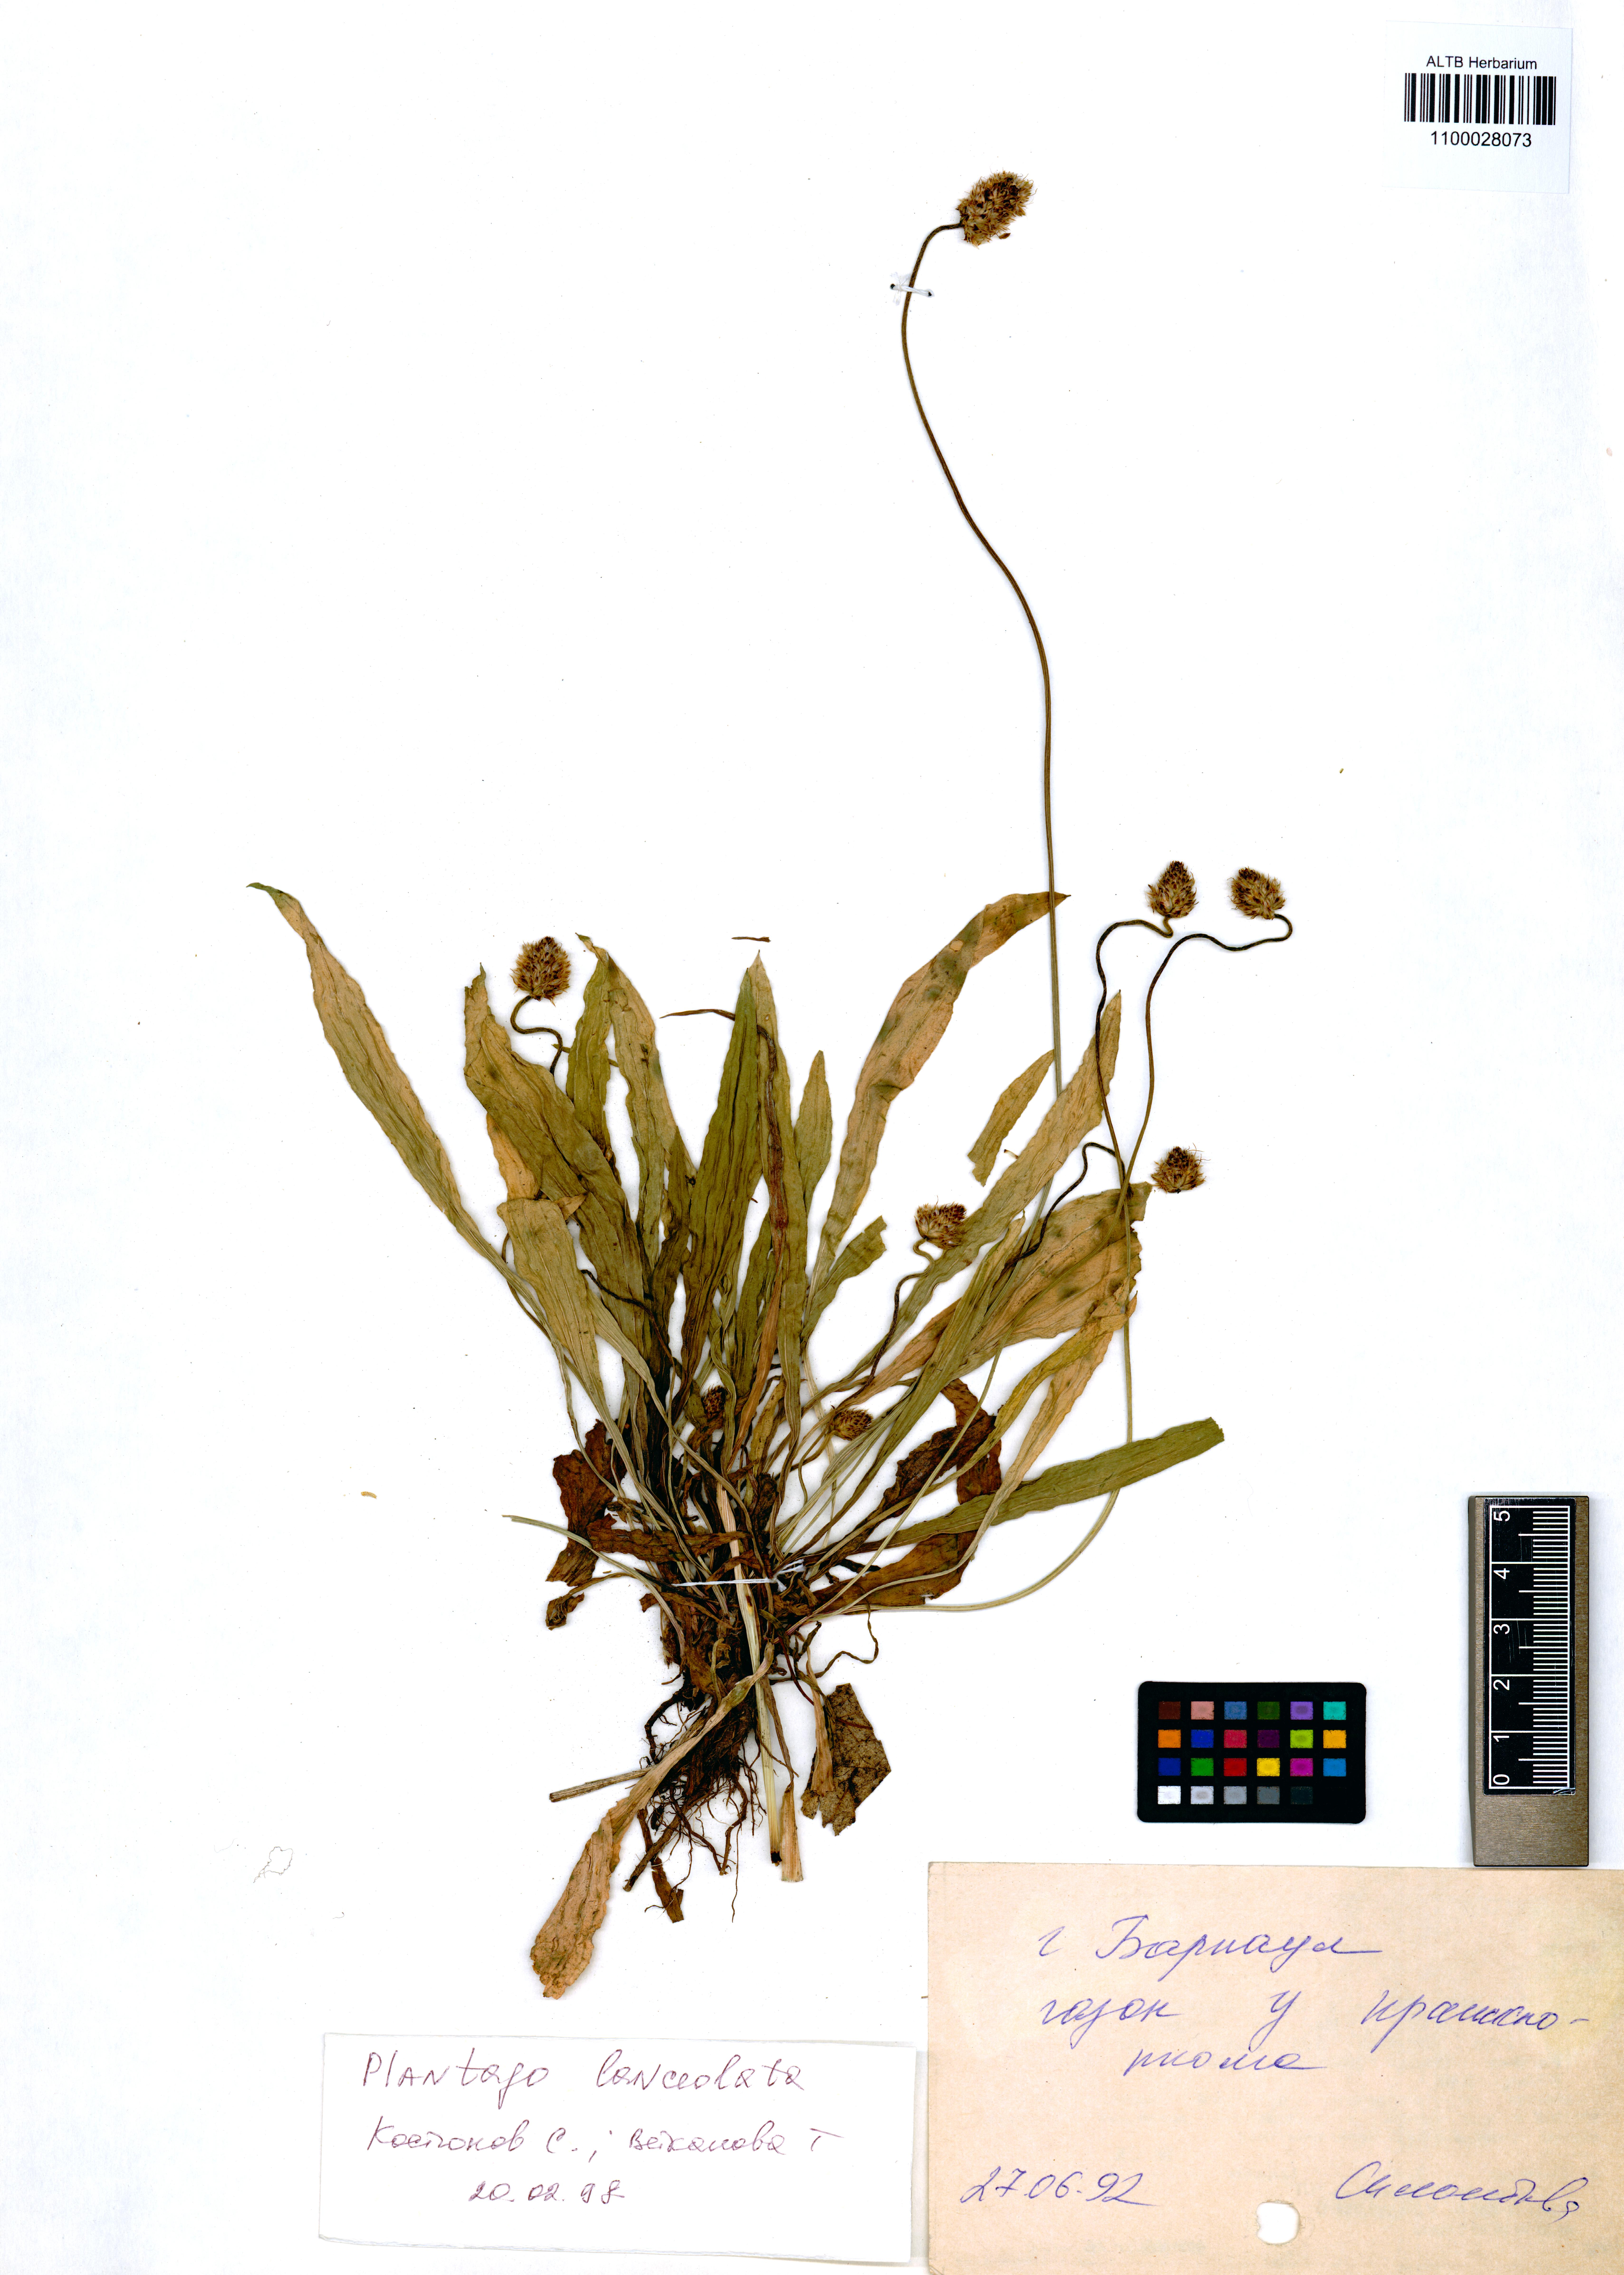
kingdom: Plantae
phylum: Tracheophyta
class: Magnoliopsida
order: Lamiales
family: Plantaginaceae
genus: Plantago
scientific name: Plantago lanceolata
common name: Ribwort plantain
